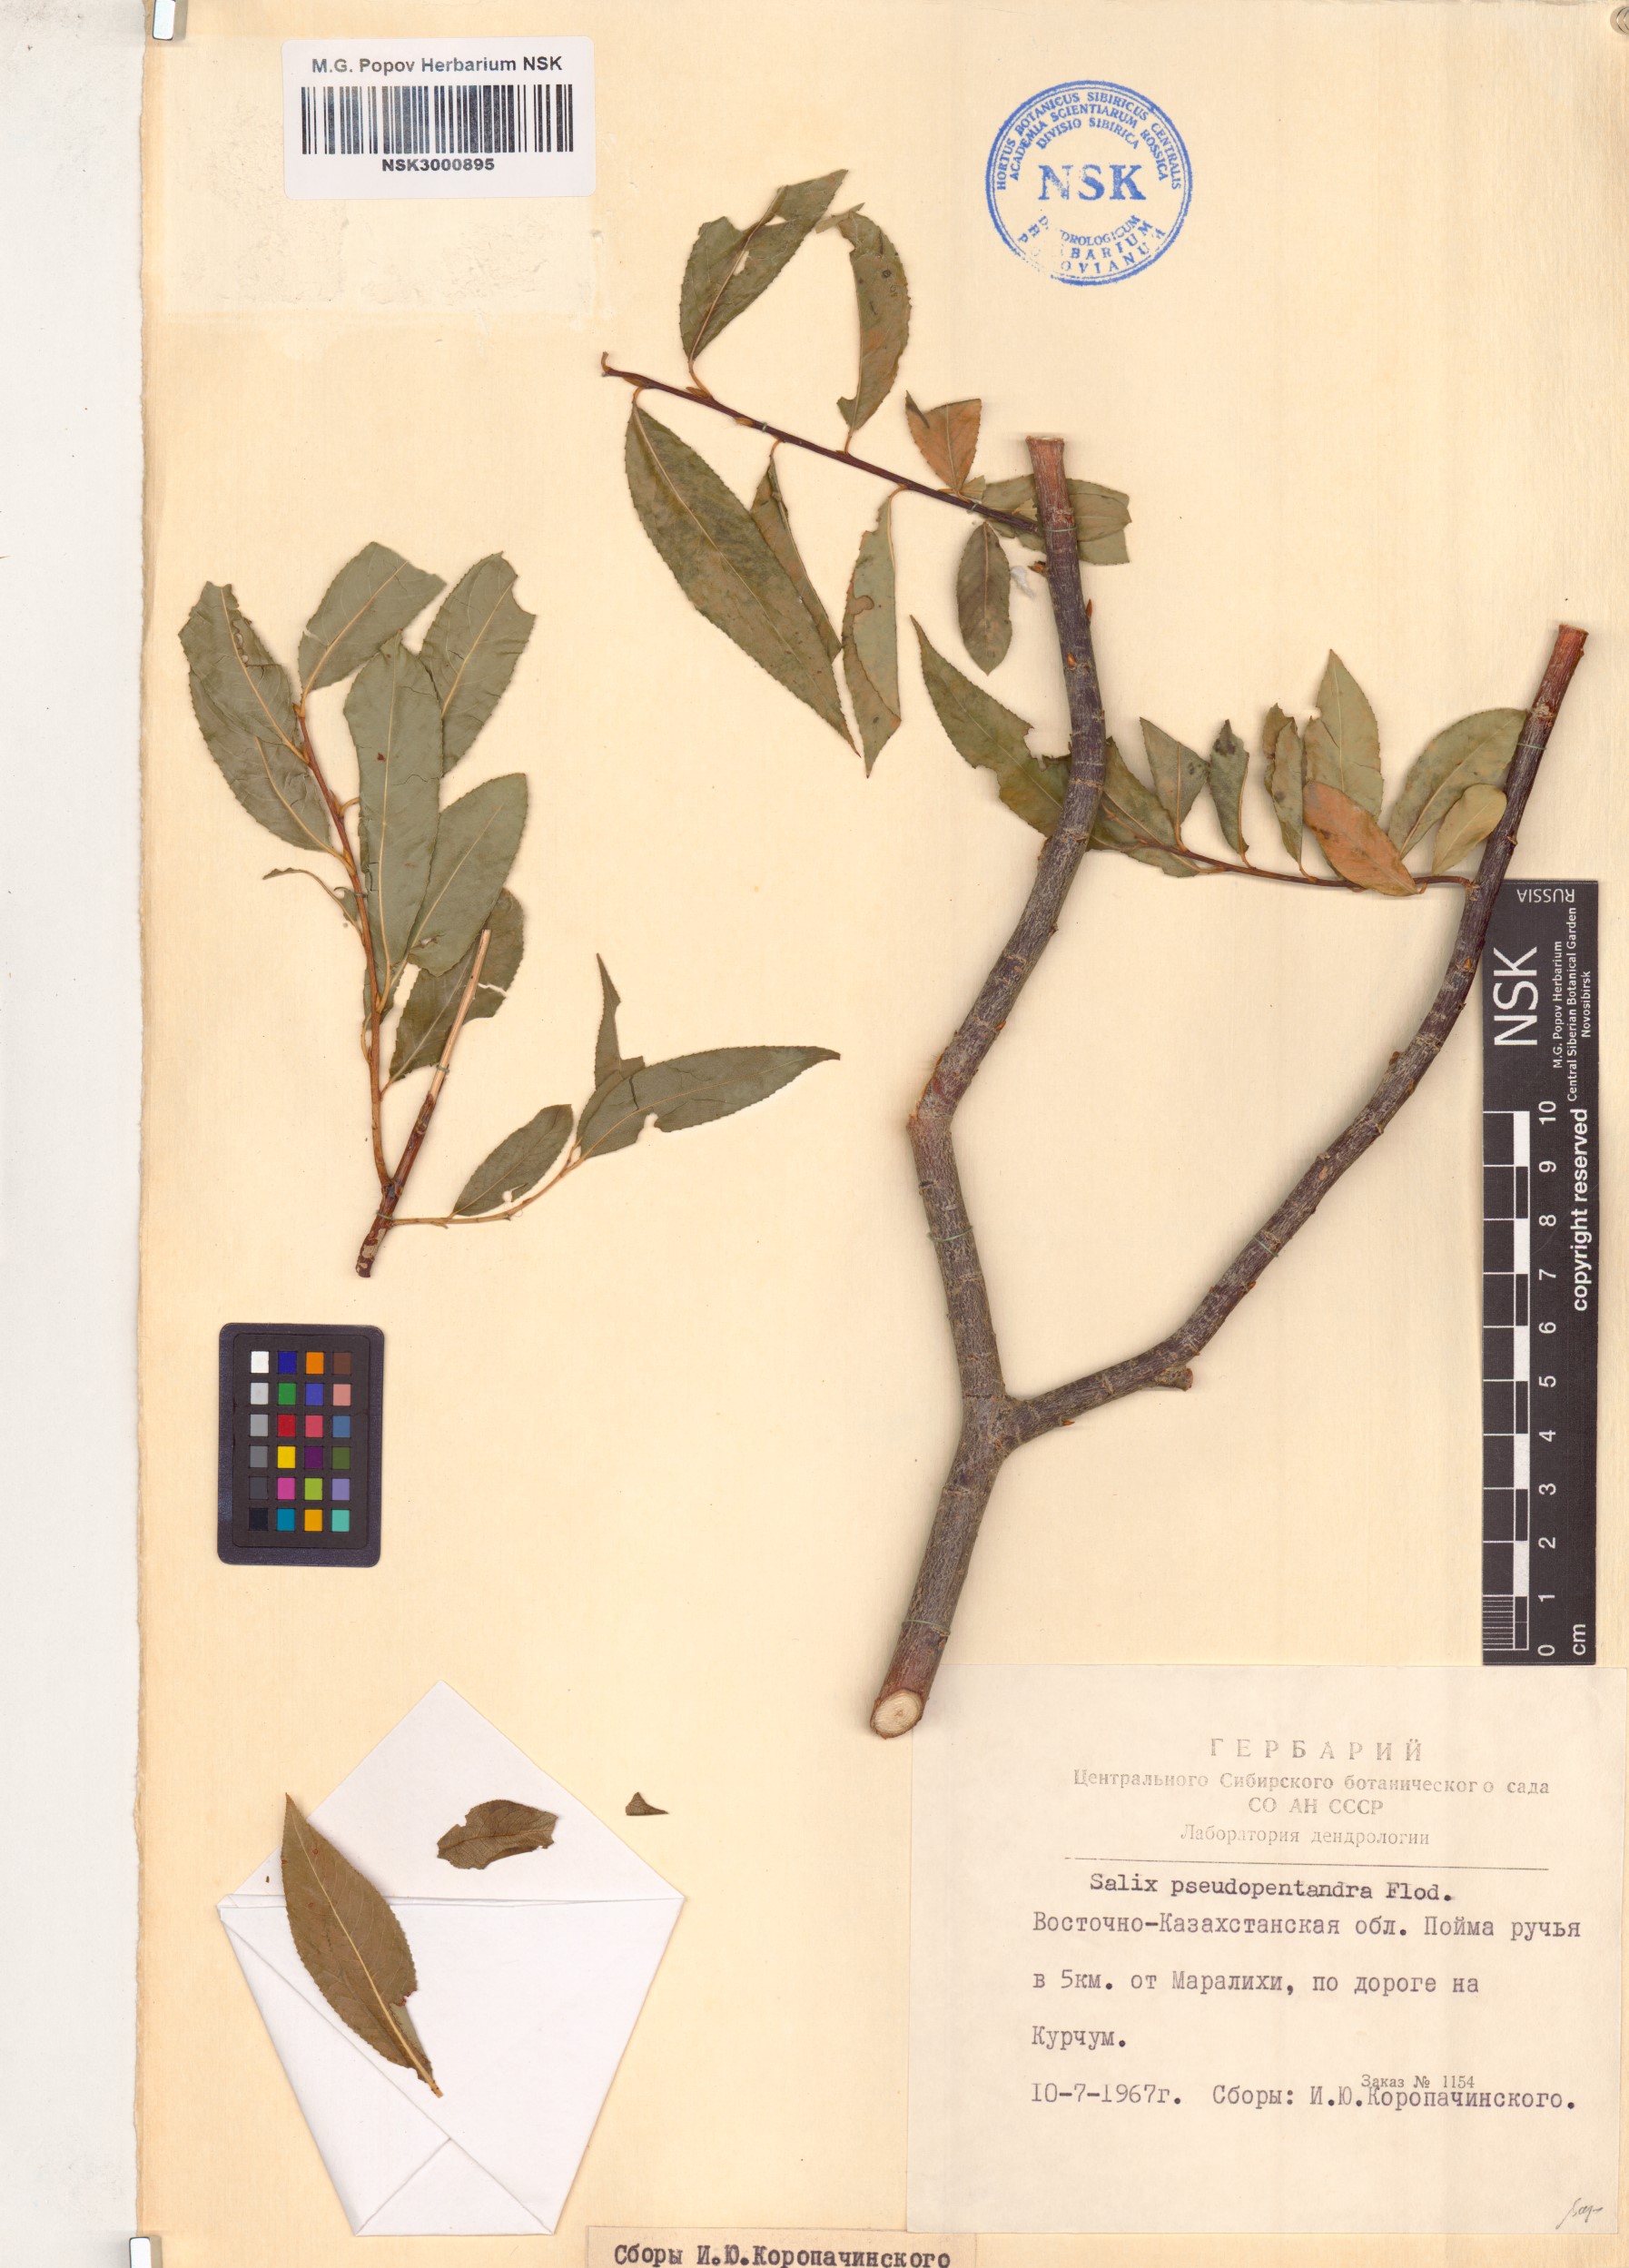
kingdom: Plantae
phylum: Tracheophyta
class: Magnoliopsida
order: Malpighiales
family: Salicaceae
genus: Salix
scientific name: Salix pseudopentandra
